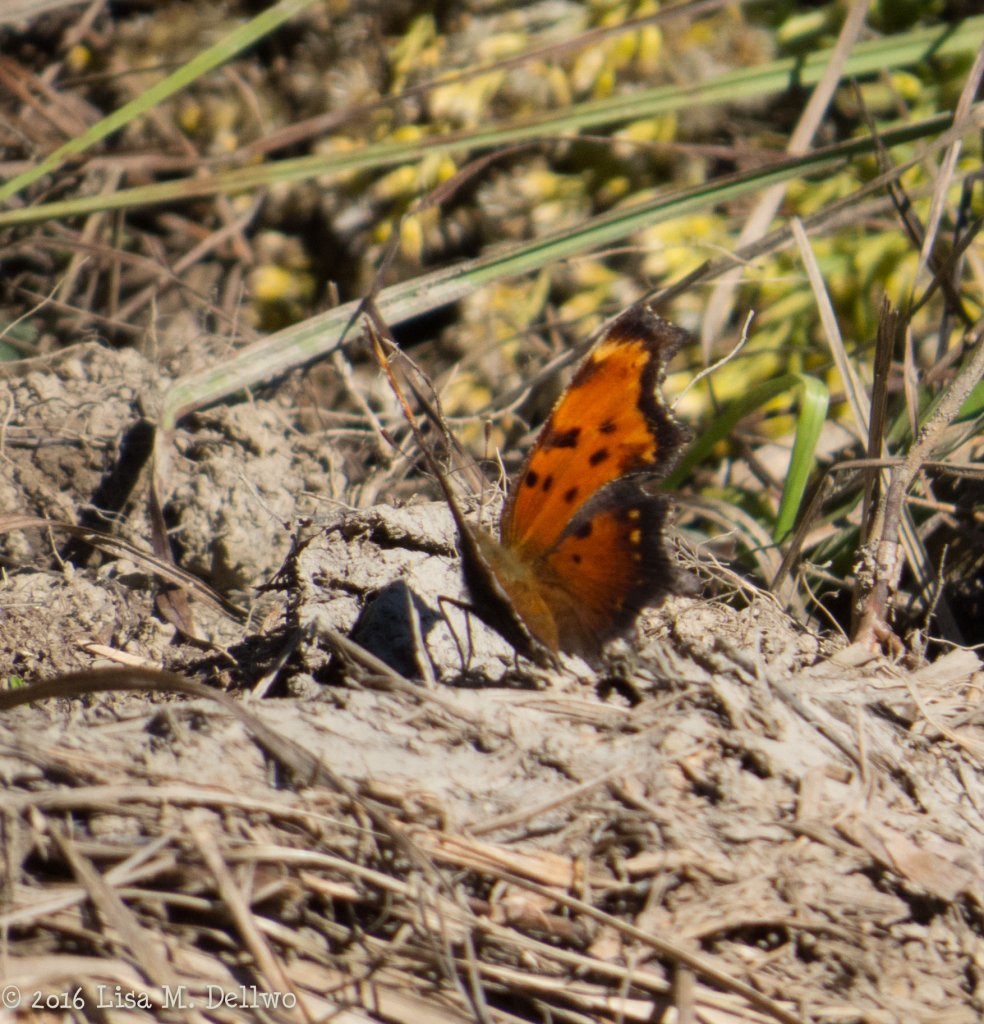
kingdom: Animalia
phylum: Arthropoda
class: Insecta
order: Lepidoptera
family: Nymphalidae
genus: Polygonia
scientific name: Polygonia comma
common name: Eastern Comma
